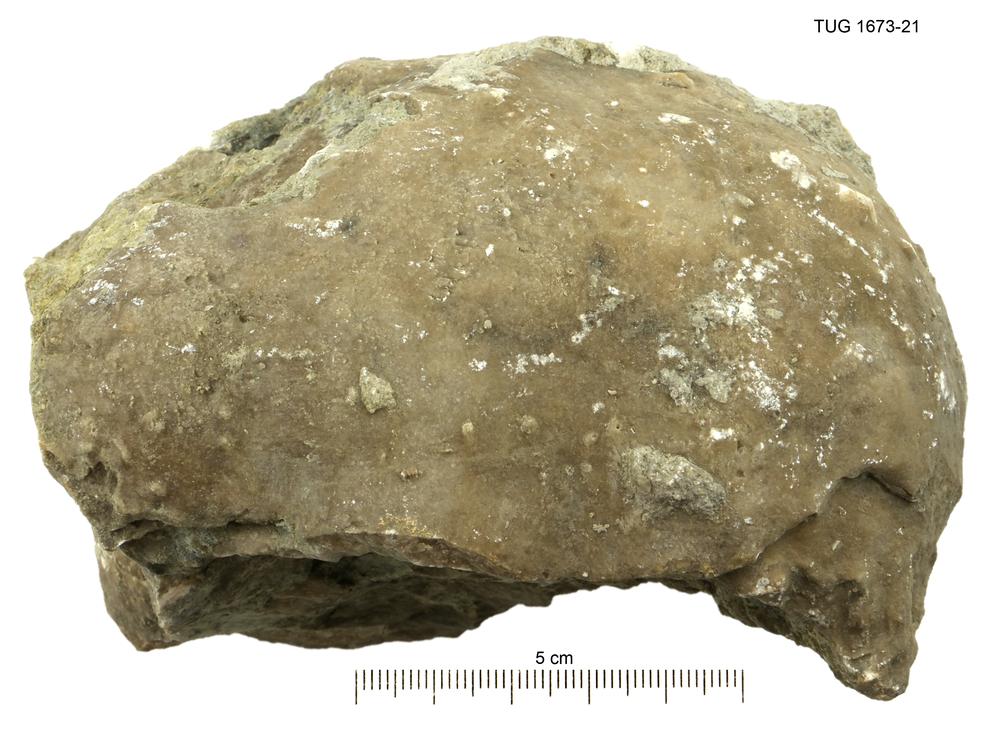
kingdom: Animalia
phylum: Porifera
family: Stromatoporidae
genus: Stromatopora
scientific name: Stromatopora
